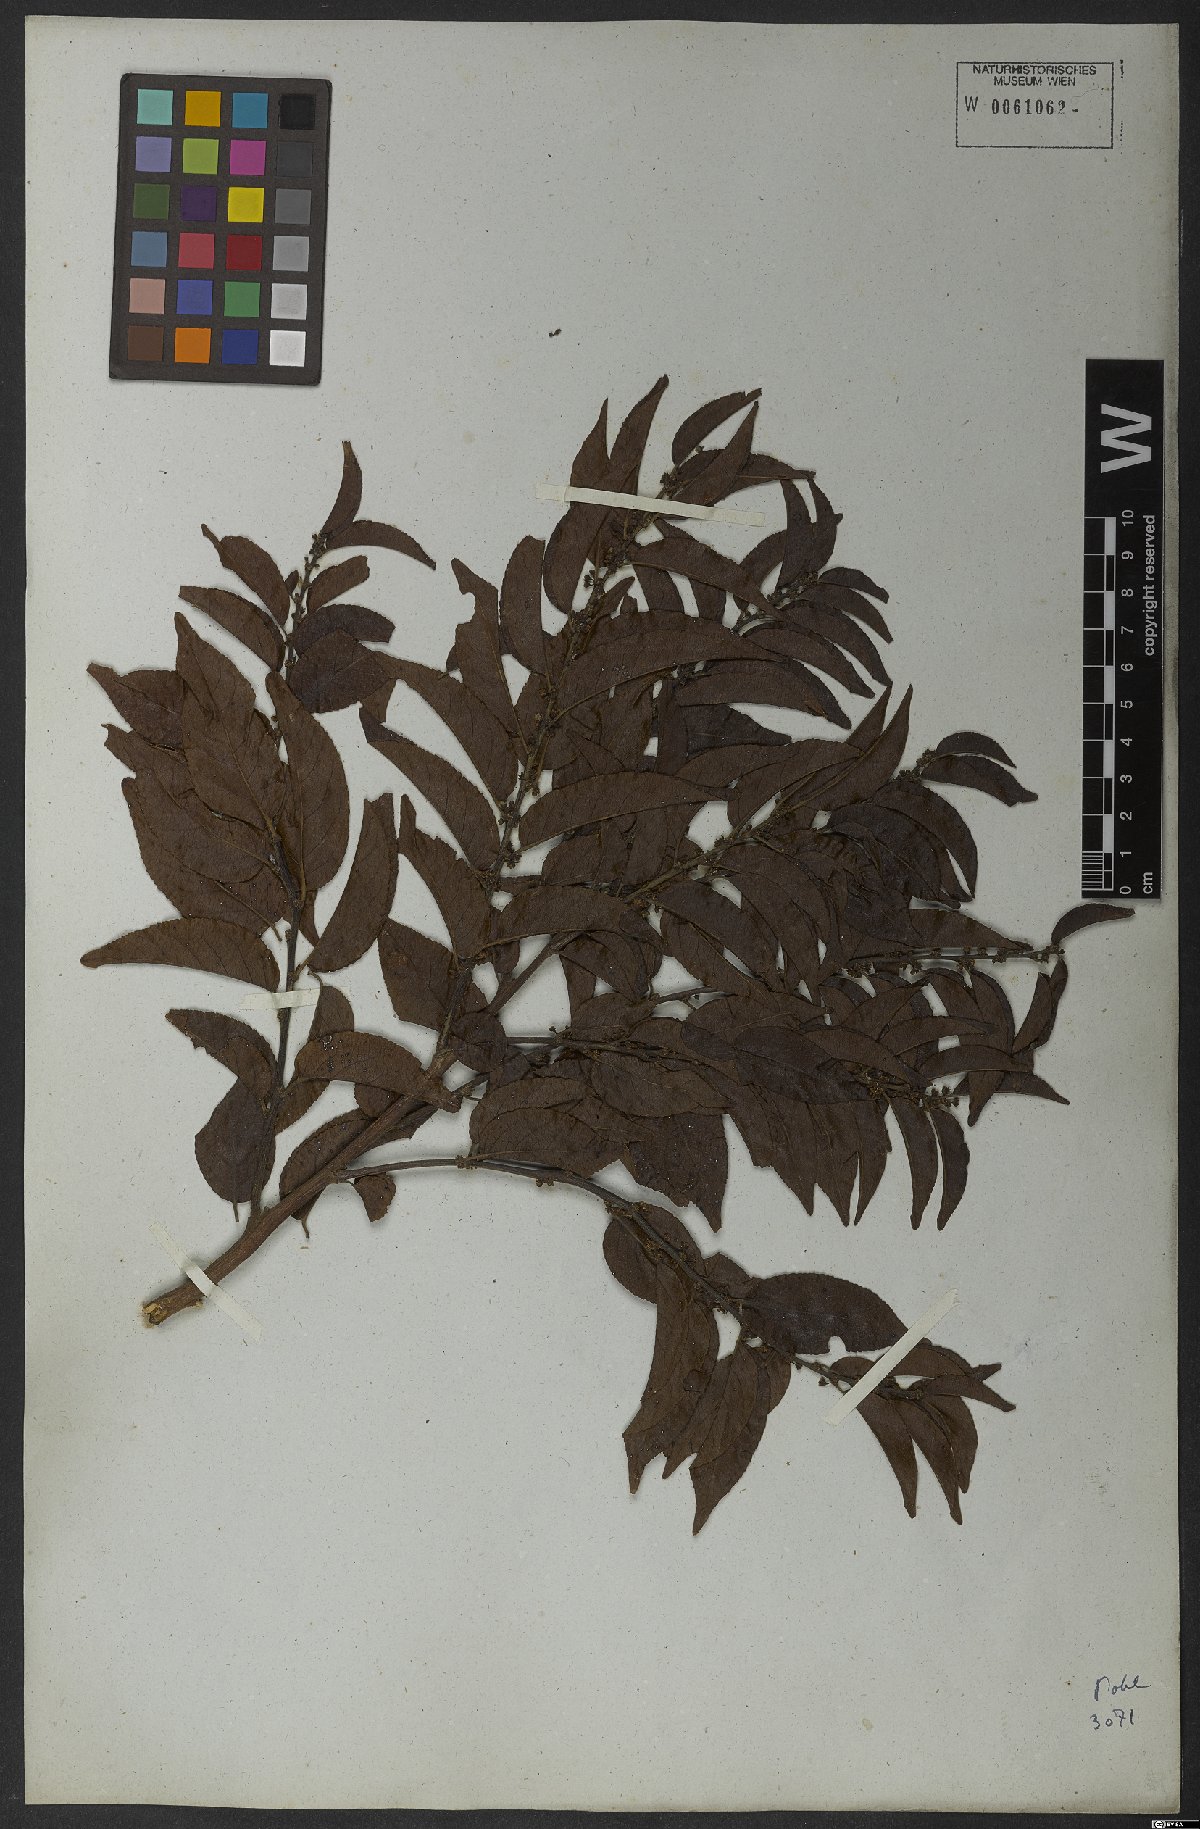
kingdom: Plantae
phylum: Tracheophyta
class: Magnoliopsida
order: Malpighiales
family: Salicaceae
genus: Casearia
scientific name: Casearia sylvestris
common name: Wild sage
